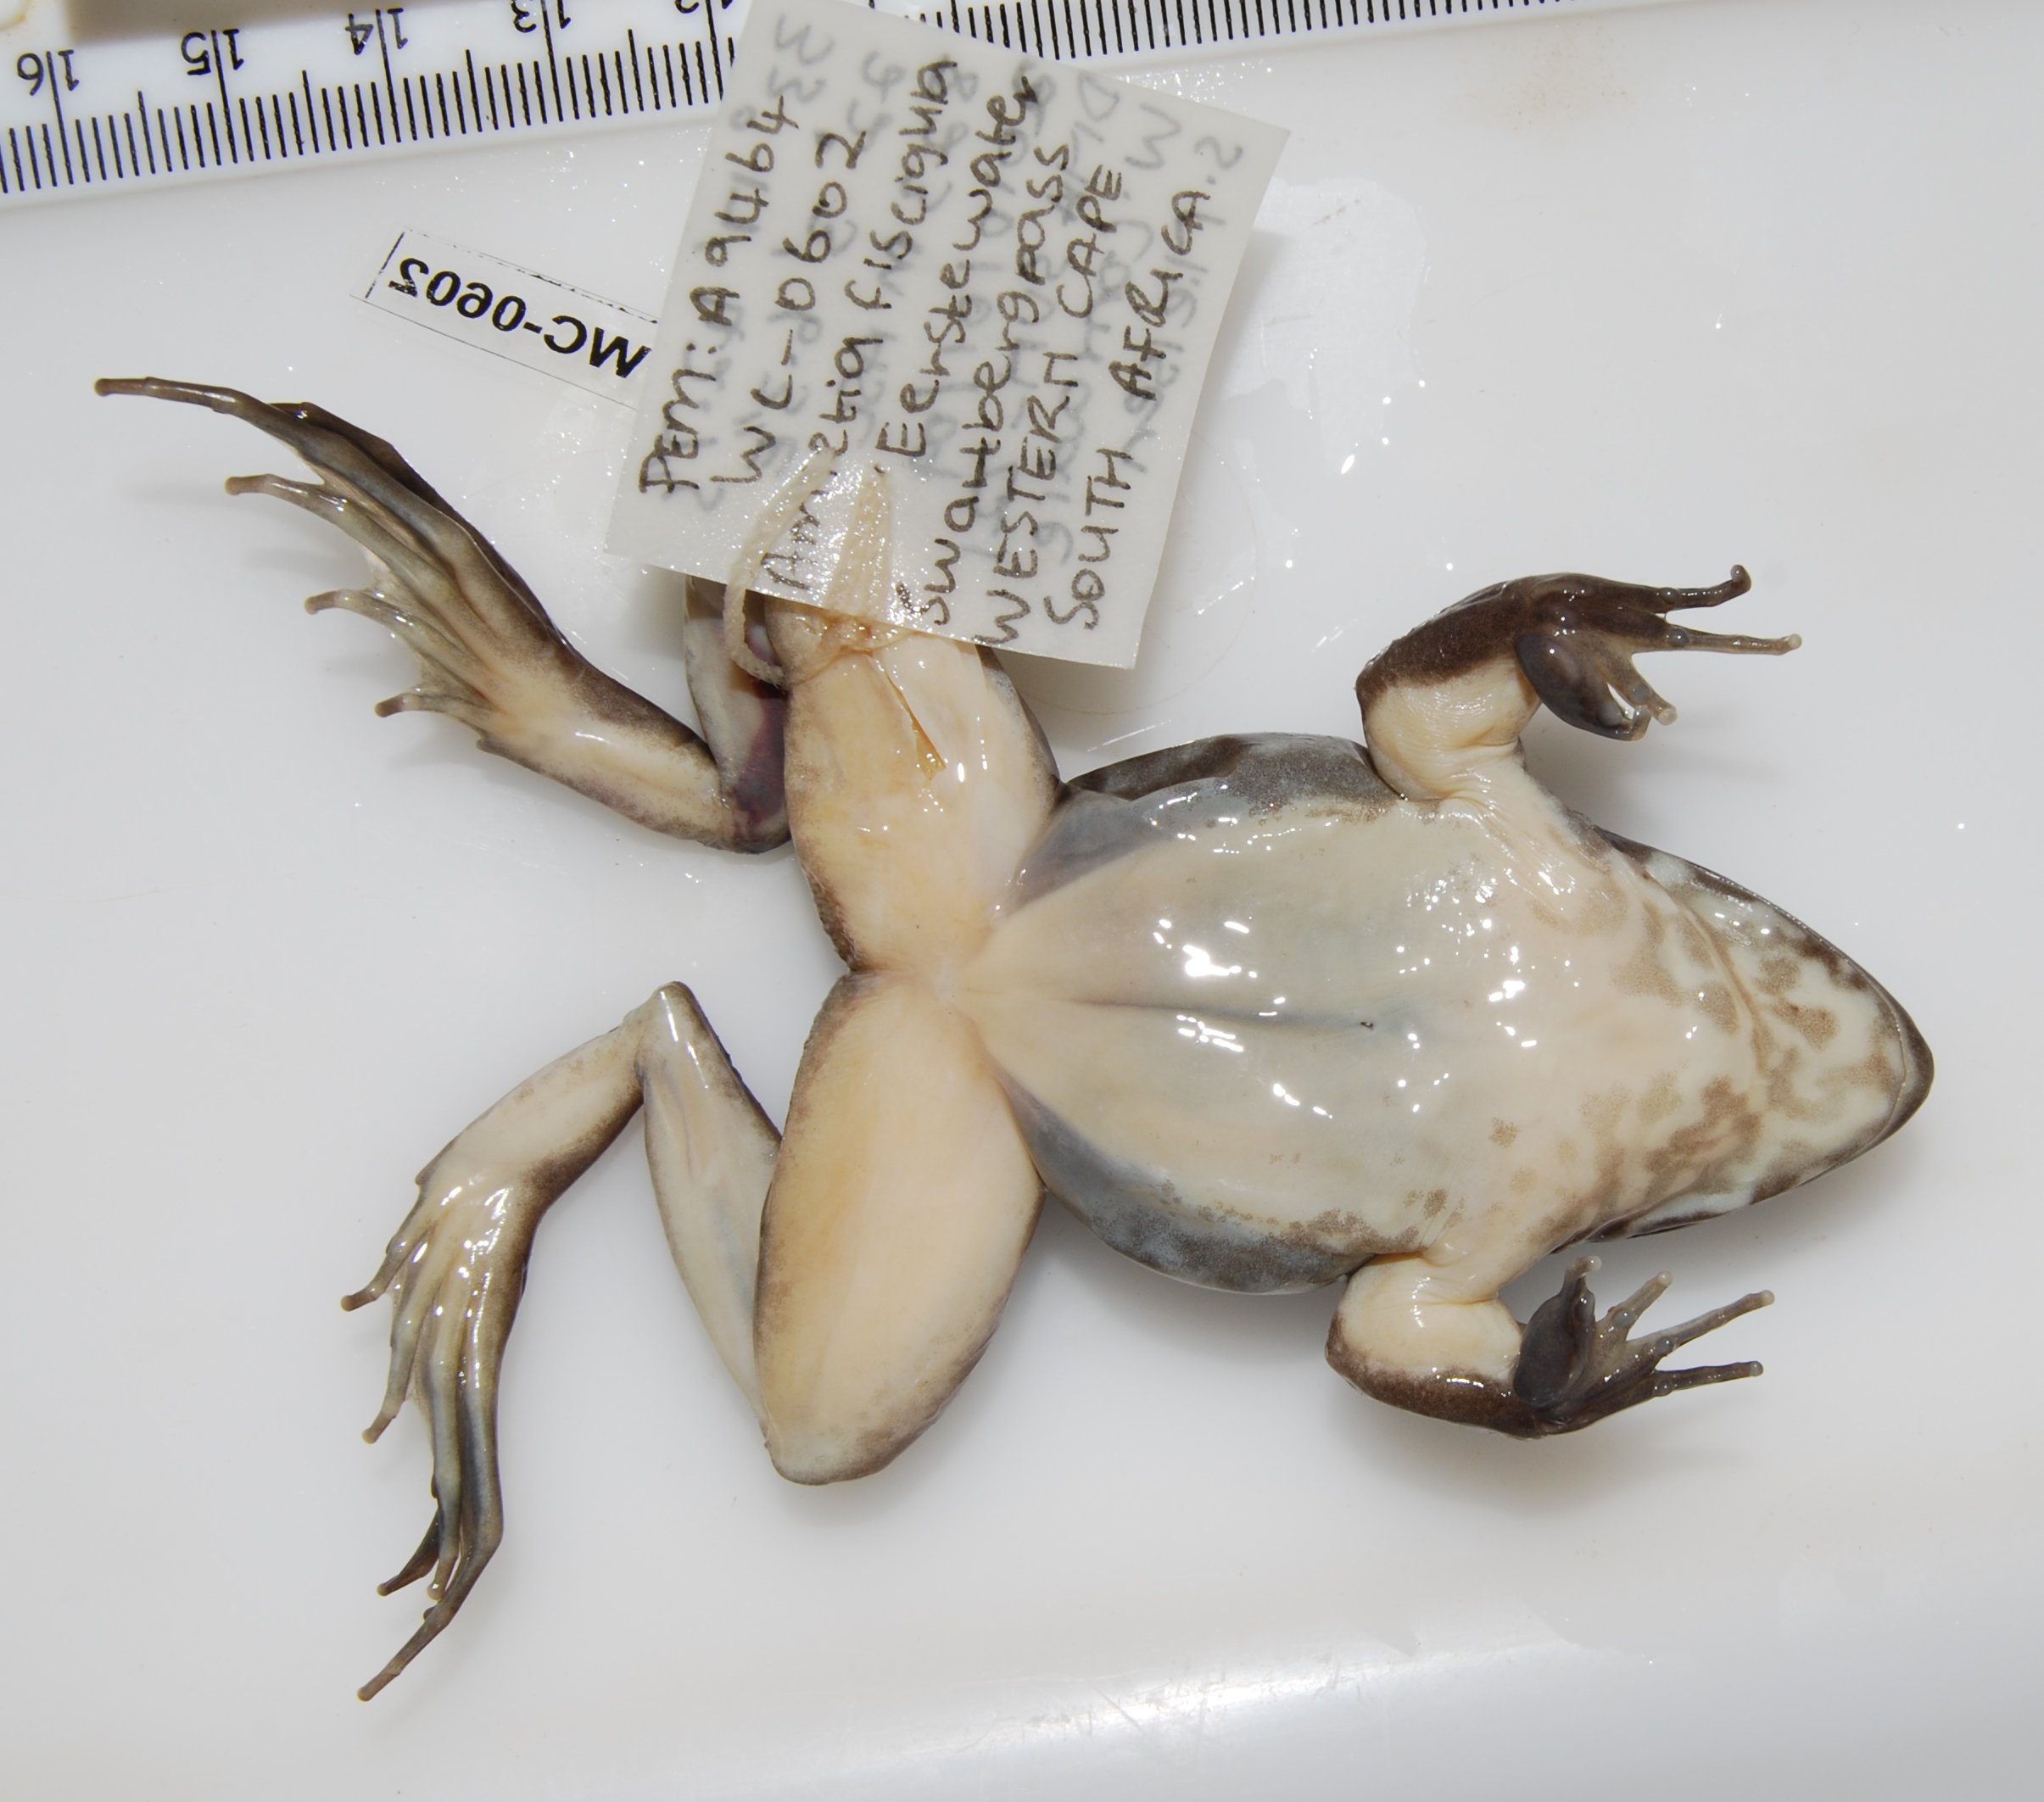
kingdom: Animalia
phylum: Chordata
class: Amphibia
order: Anura
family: Pyxicephalidae
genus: Amietia
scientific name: Amietia fuscigula
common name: Cape rana
